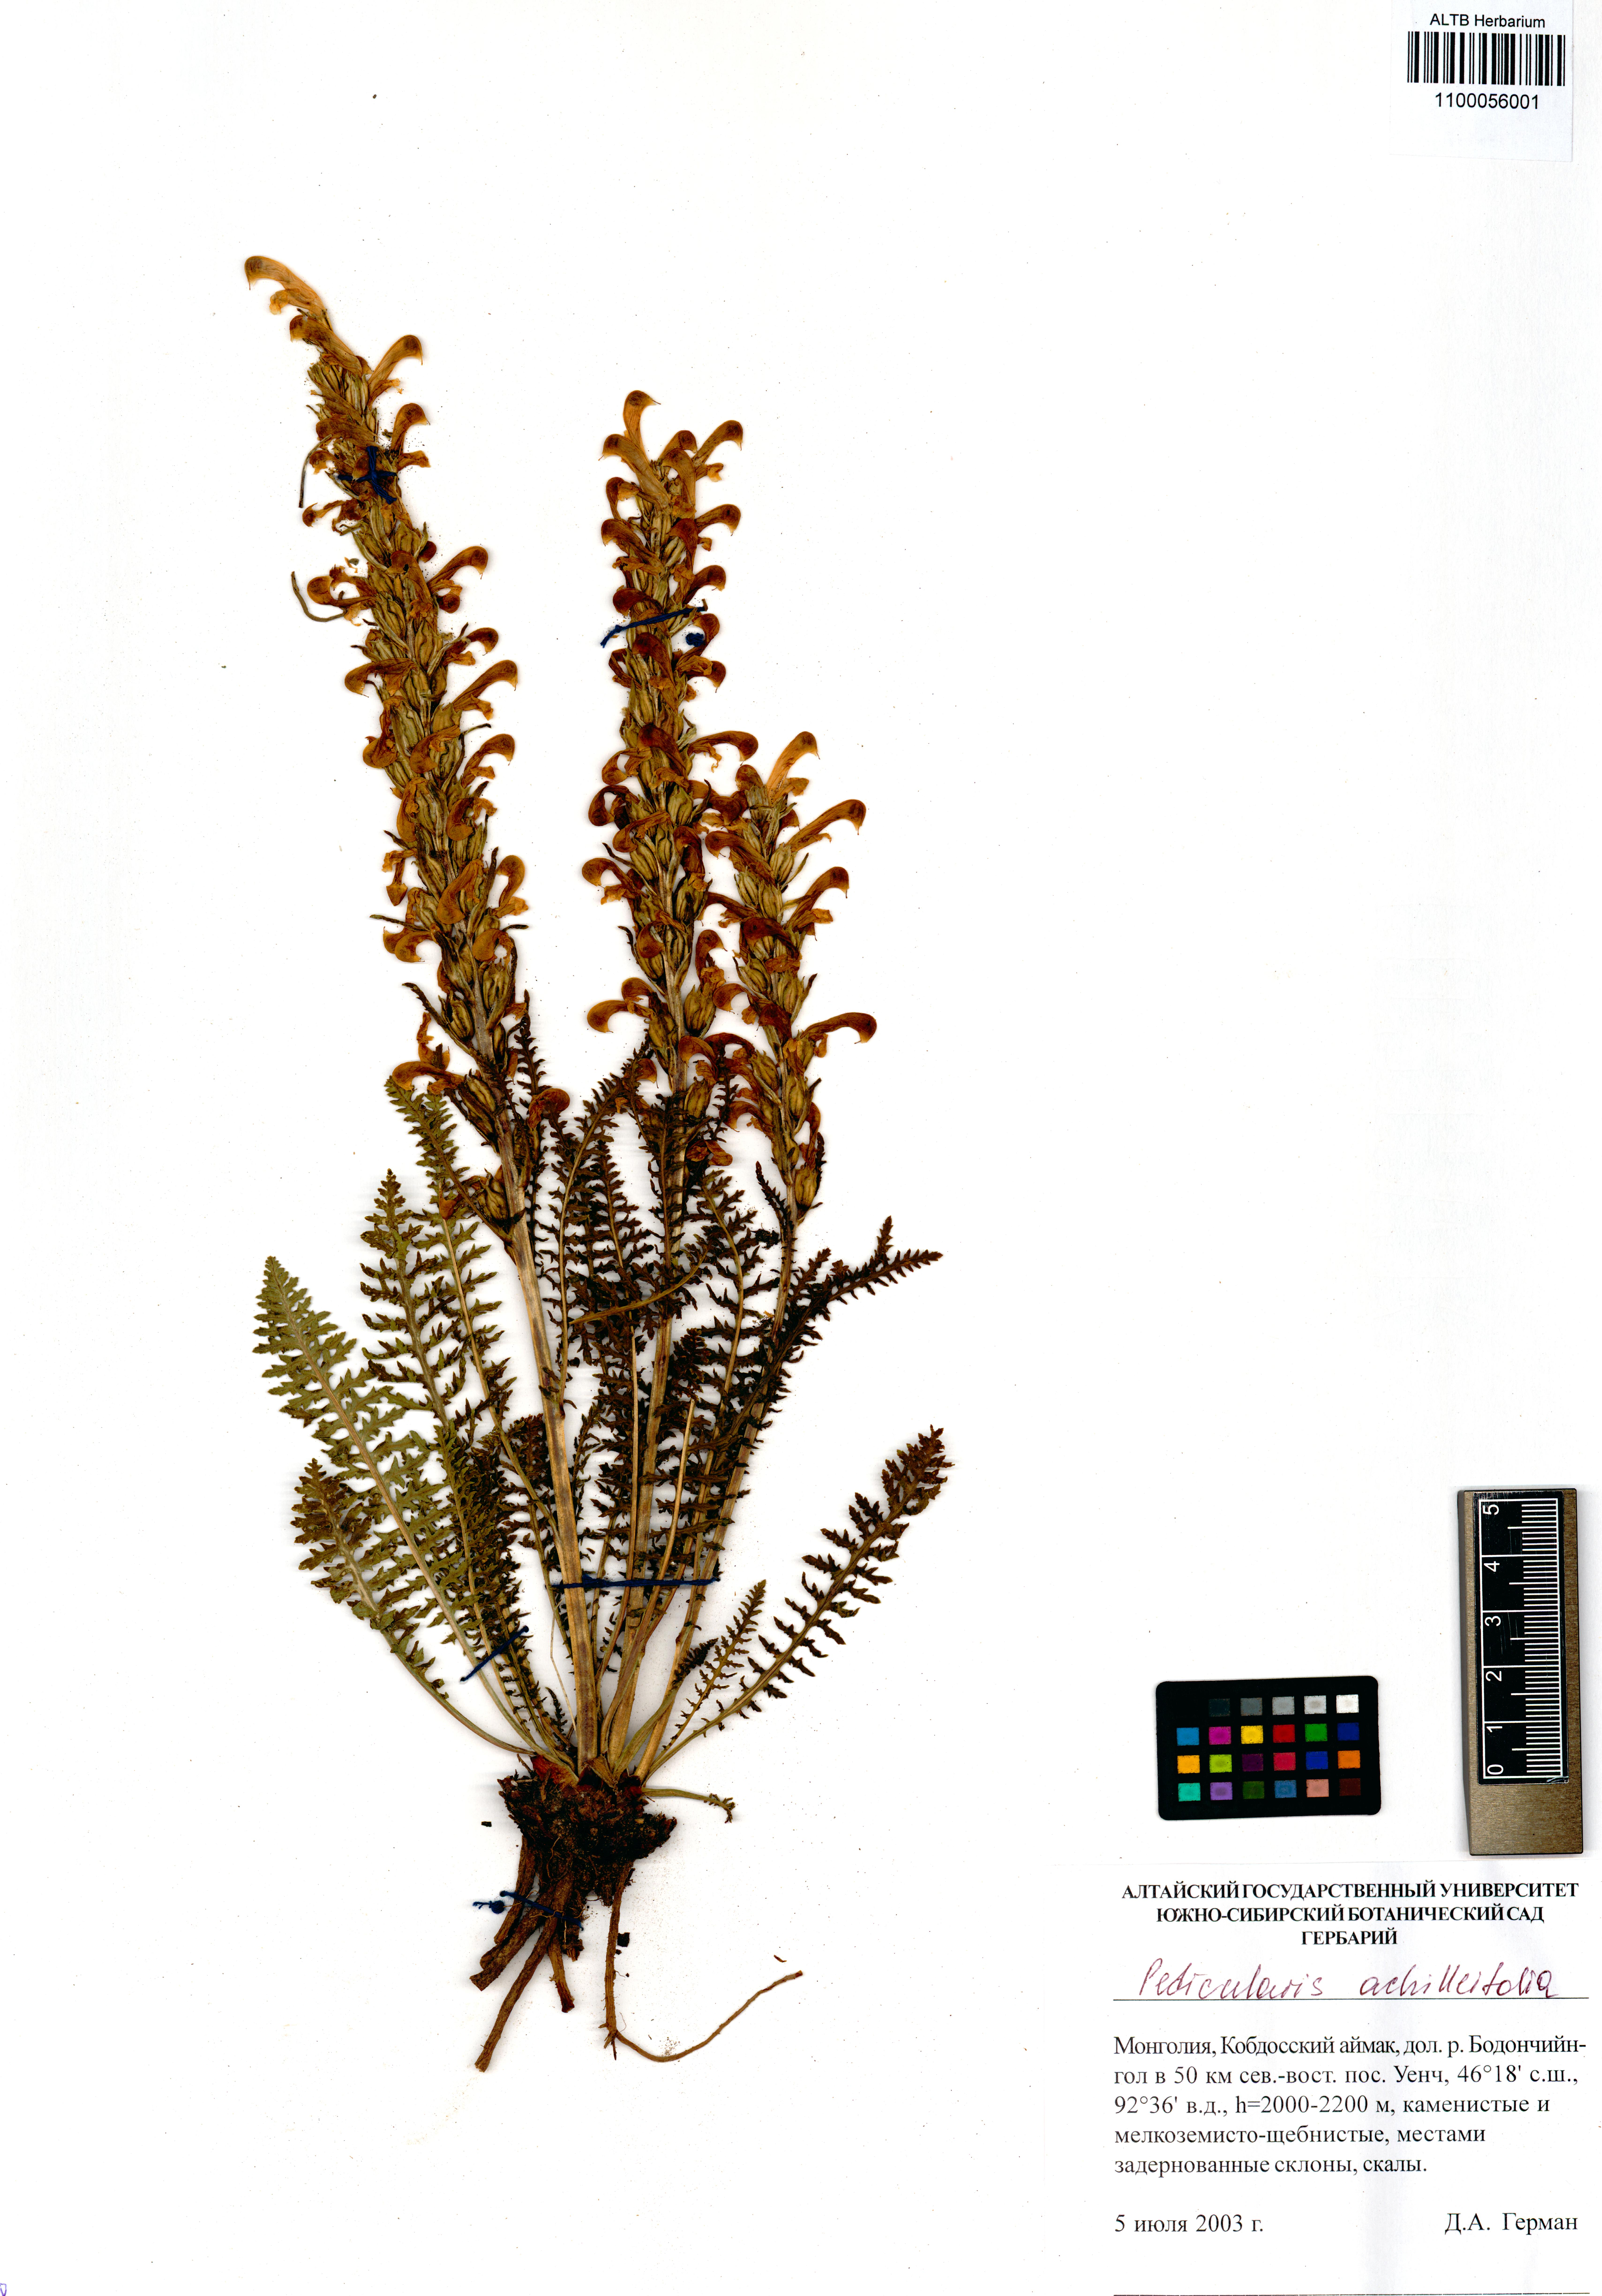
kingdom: Plantae
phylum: Tracheophyta
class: Magnoliopsida
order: Lamiales
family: Orobanchaceae
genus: Pedicularis
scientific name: Pedicularis achilleifolia
